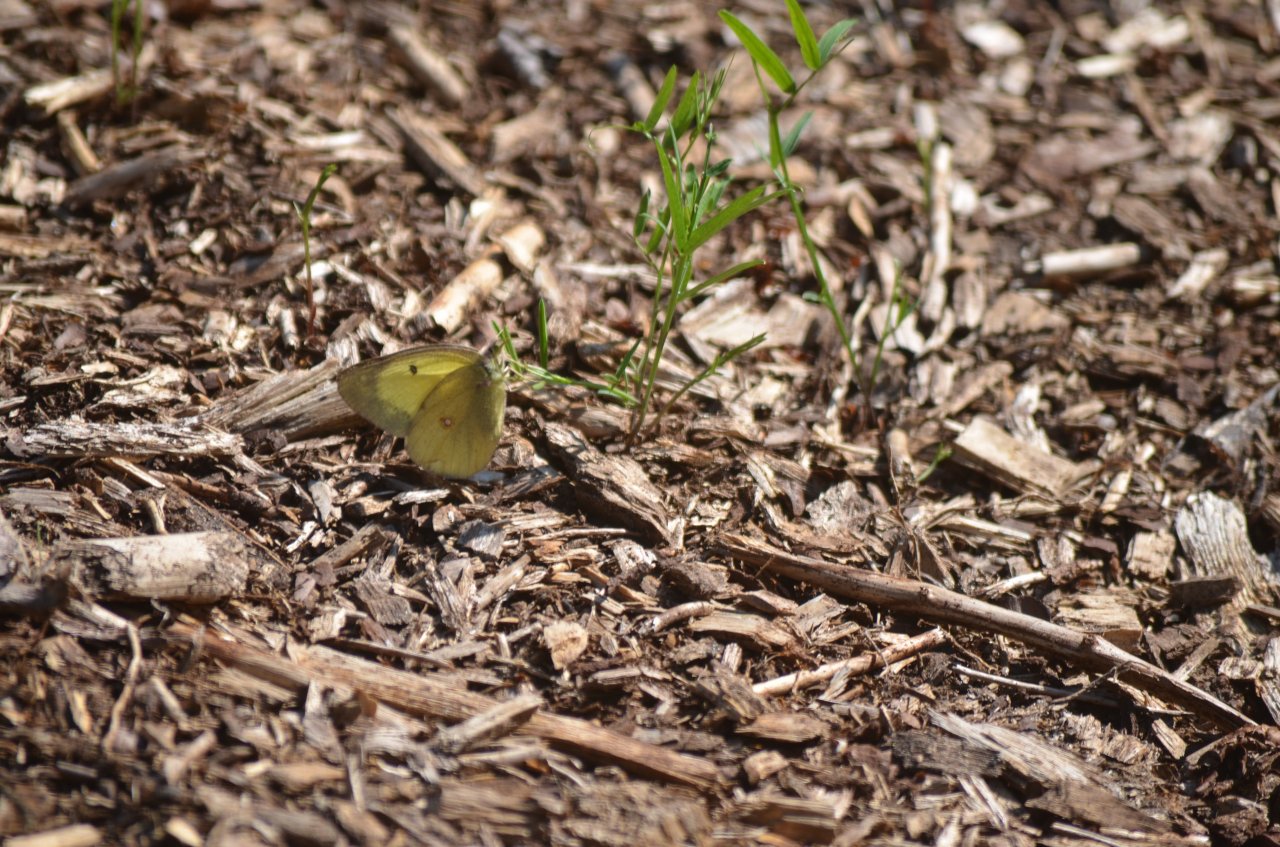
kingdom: Animalia
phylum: Arthropoda
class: Insecta
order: Lepidoptera
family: Pieridae
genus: Colias
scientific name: Colias philodice
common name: Clouded Sulphur
